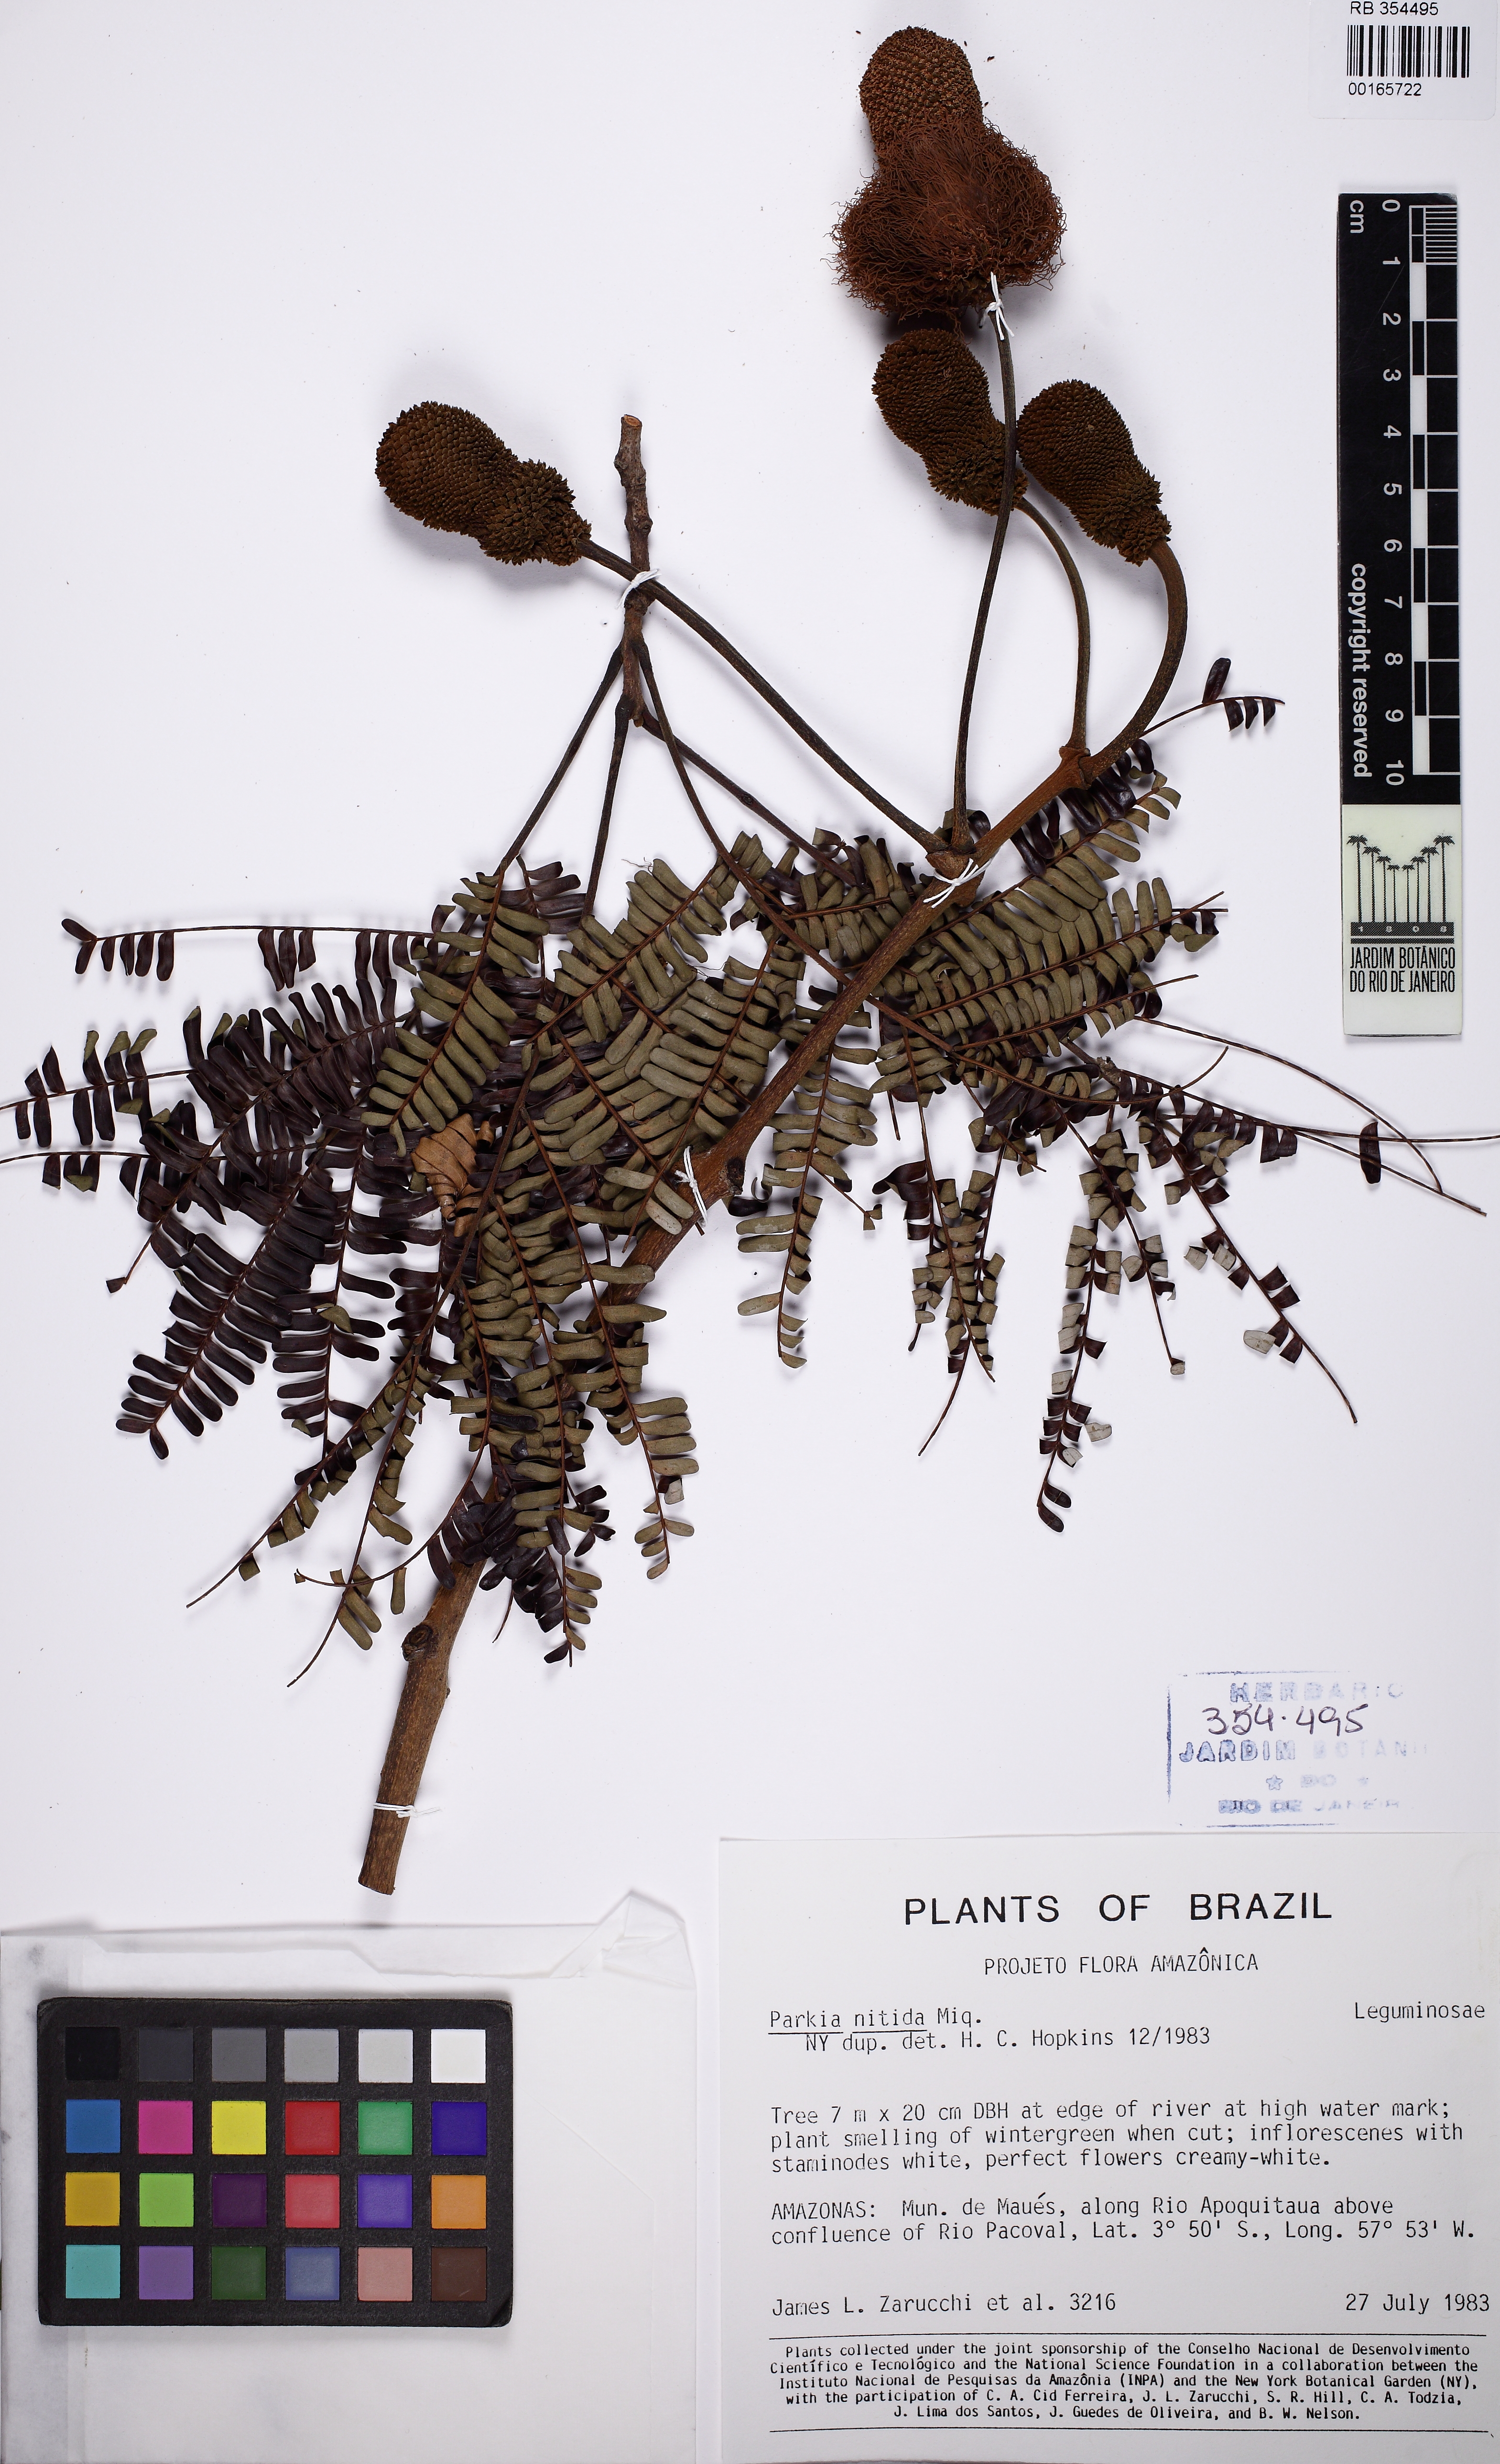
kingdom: Plantae
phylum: Tracheophyta
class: Magnoliopsida
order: Fabales
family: Fabaceae
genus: Parkia
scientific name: Parkia nitida
